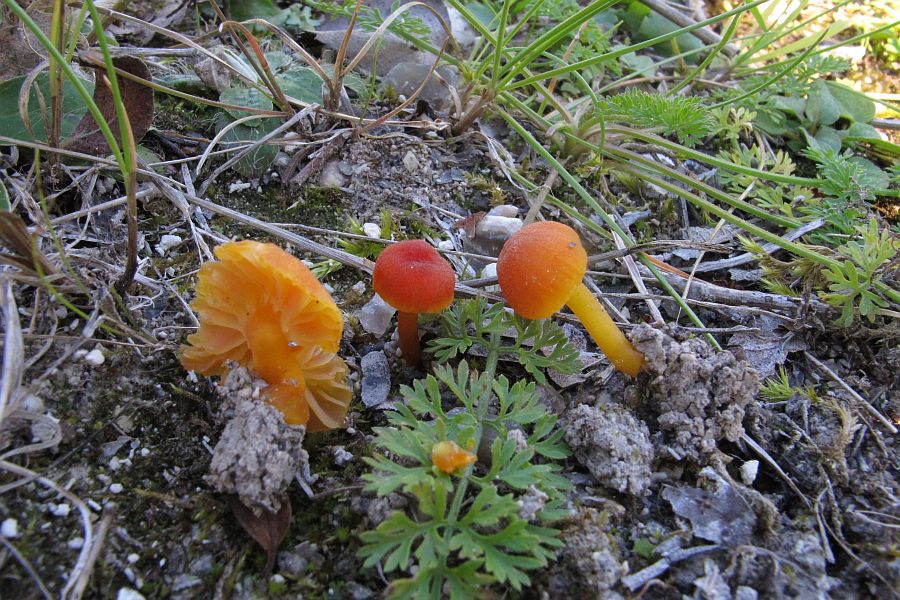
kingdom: Fungi
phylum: Basidiomycota
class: Agaricomycetes
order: Agaricales
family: Hygrophoraceae
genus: Hygrocybe
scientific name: Hygrocybe calciphila
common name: kalk-vokshat
